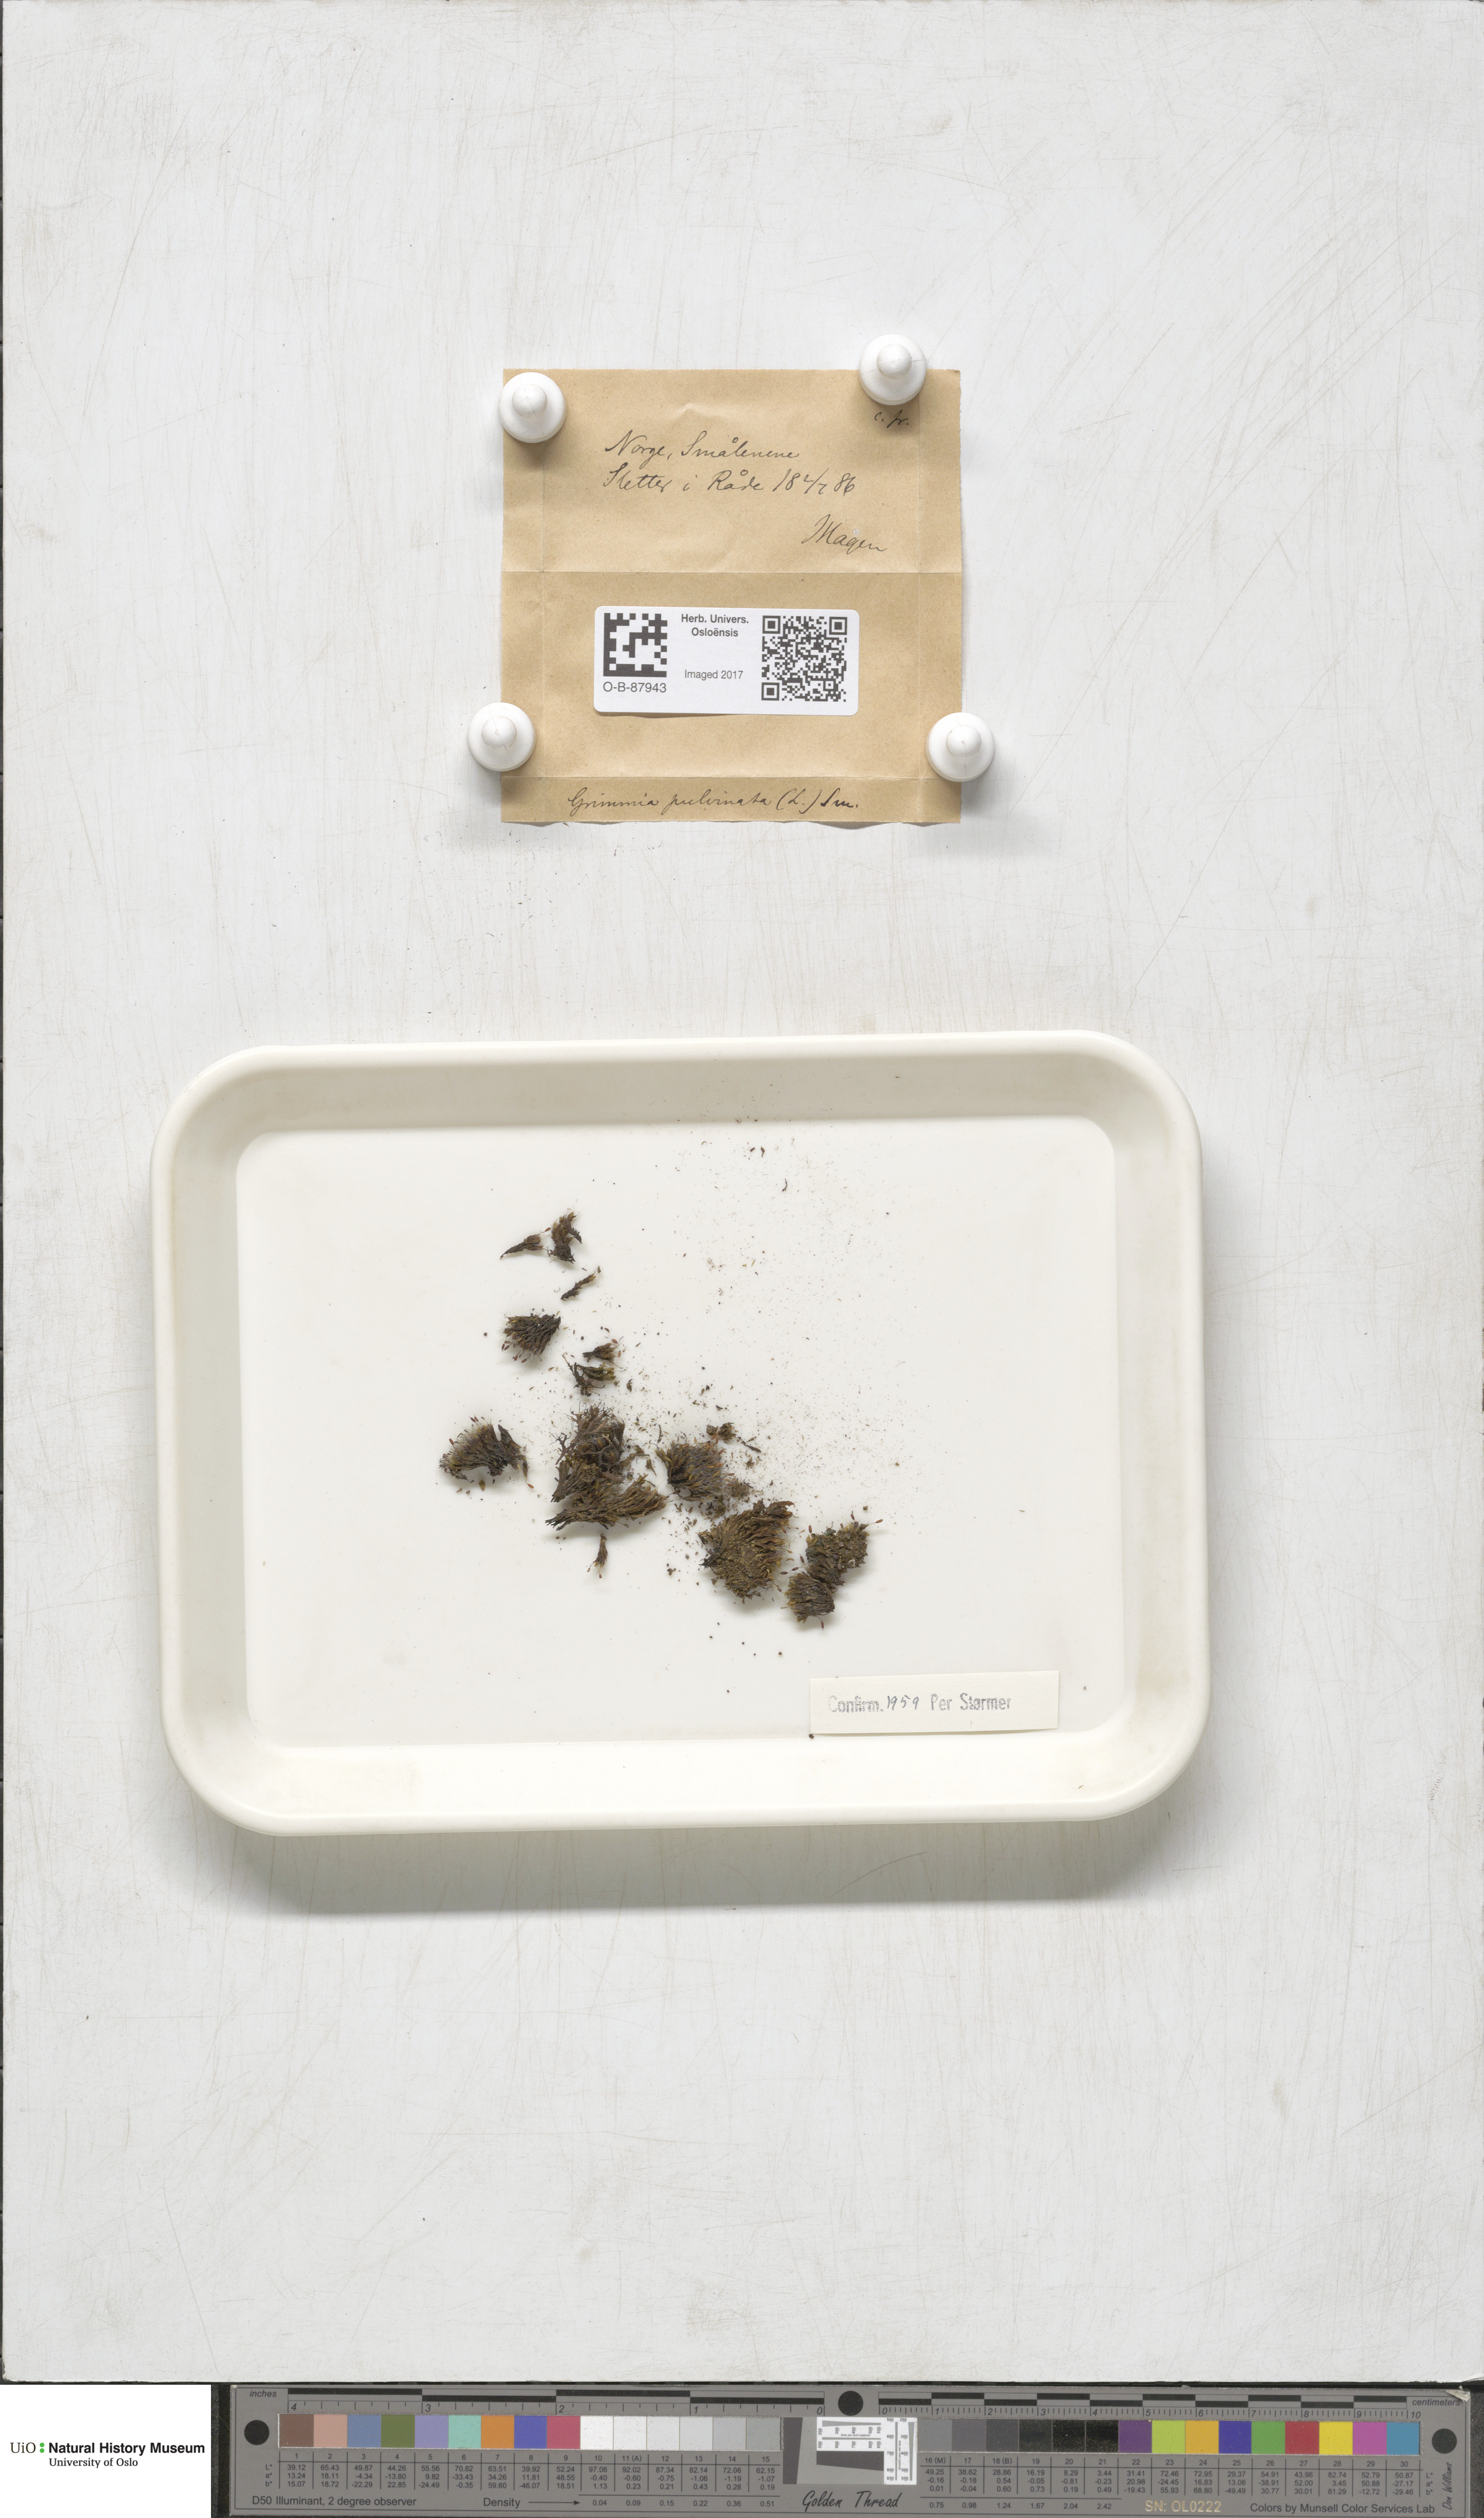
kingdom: Plantae
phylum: Bryophyta
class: Bryopsida
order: Grimmiales
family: Grimmiaceae
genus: Grimmia
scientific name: Grimmia pulvinata
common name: Grey-cushioned grimmia
